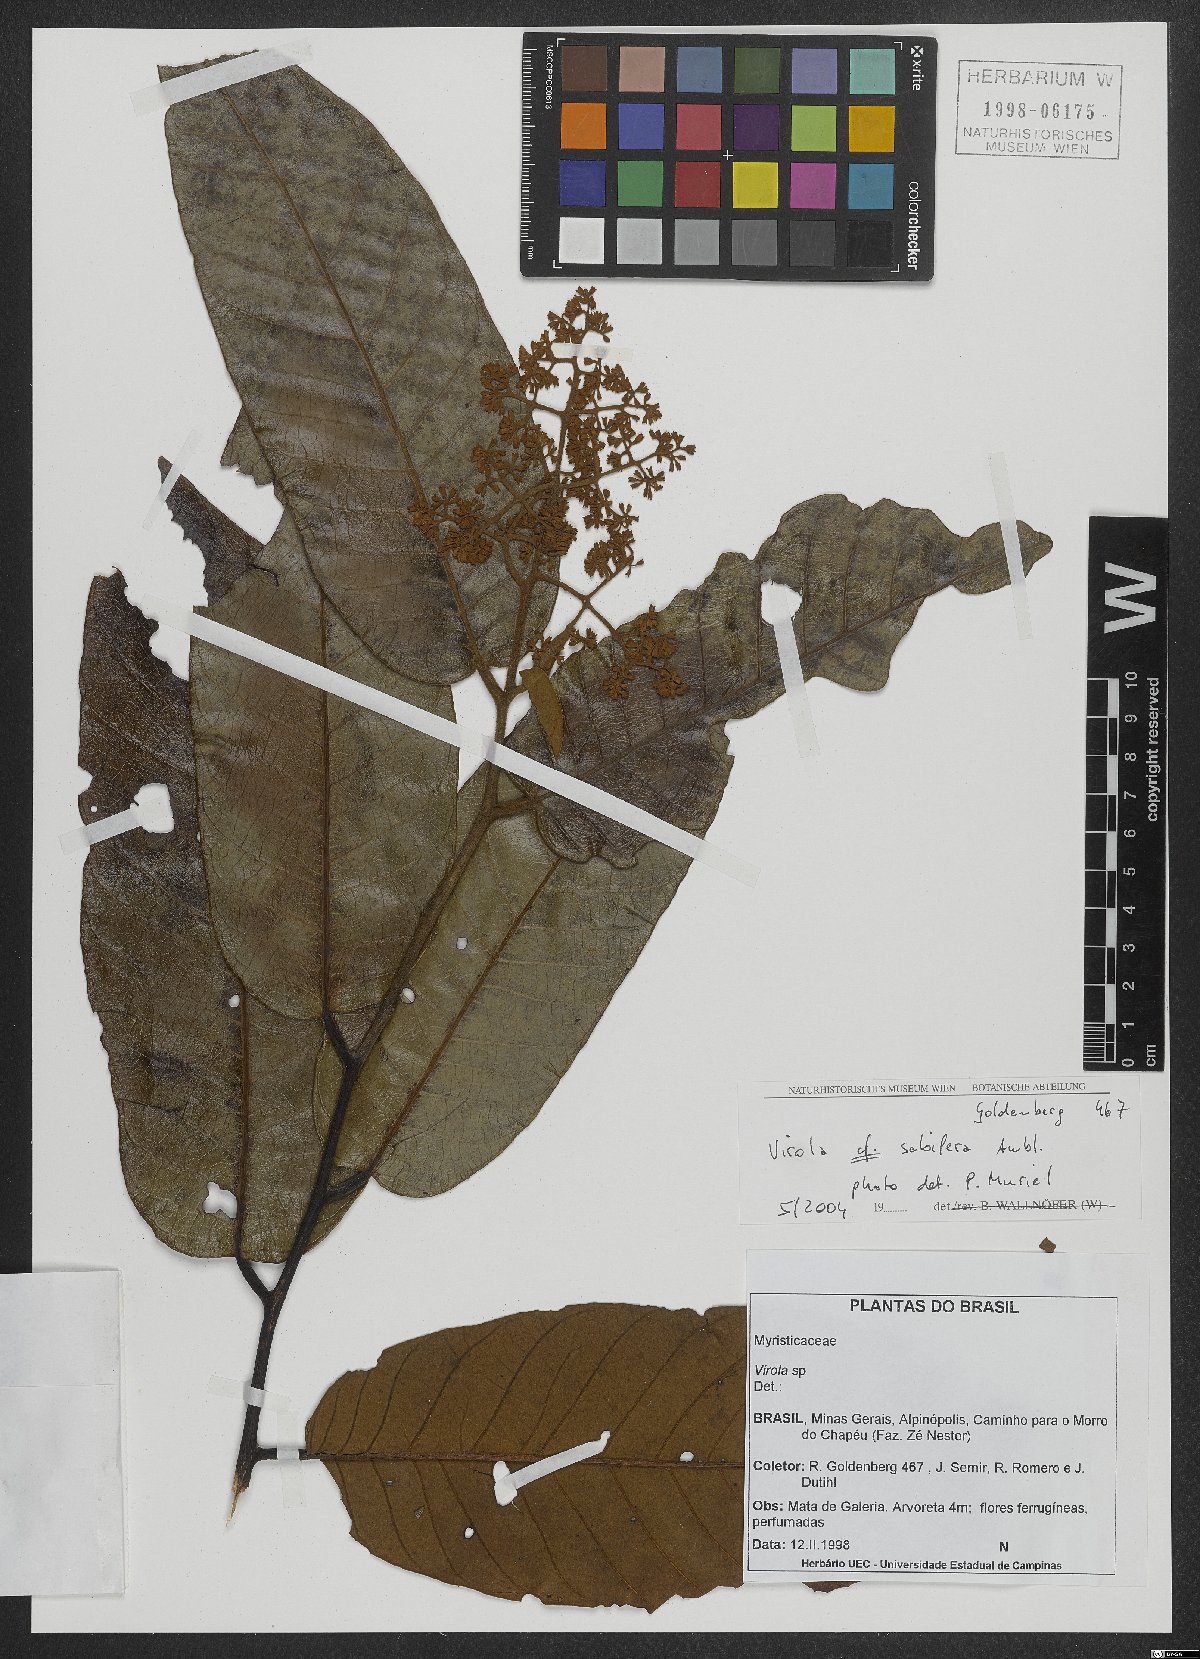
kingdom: Plantae
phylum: Tracheophyta
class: Magnoliopsida
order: Magnoliales
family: Myristicaceae
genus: Virola
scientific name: Virola sebifera
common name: Red ucuuba
